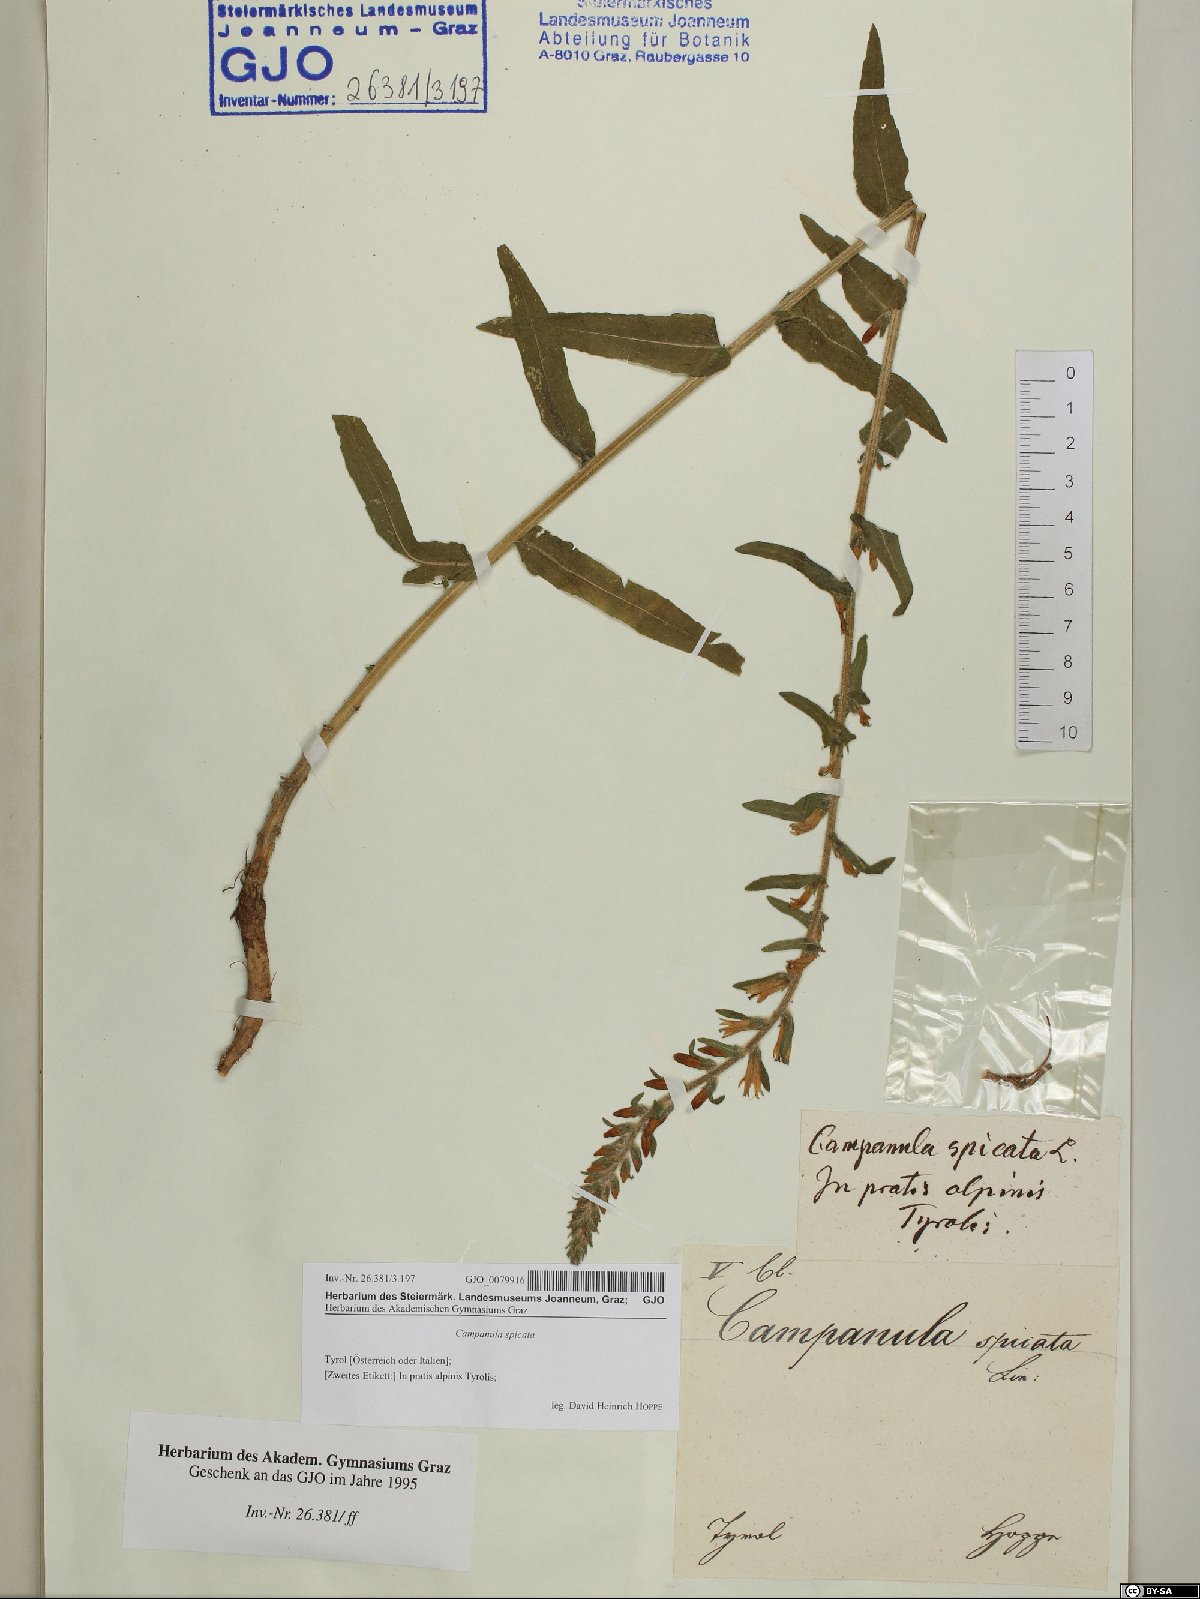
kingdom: Plantae
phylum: Tracheophyta
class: Magnoliopsida
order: Asterales
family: Campanulaceae
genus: Campanula
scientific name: Campanula spicata
